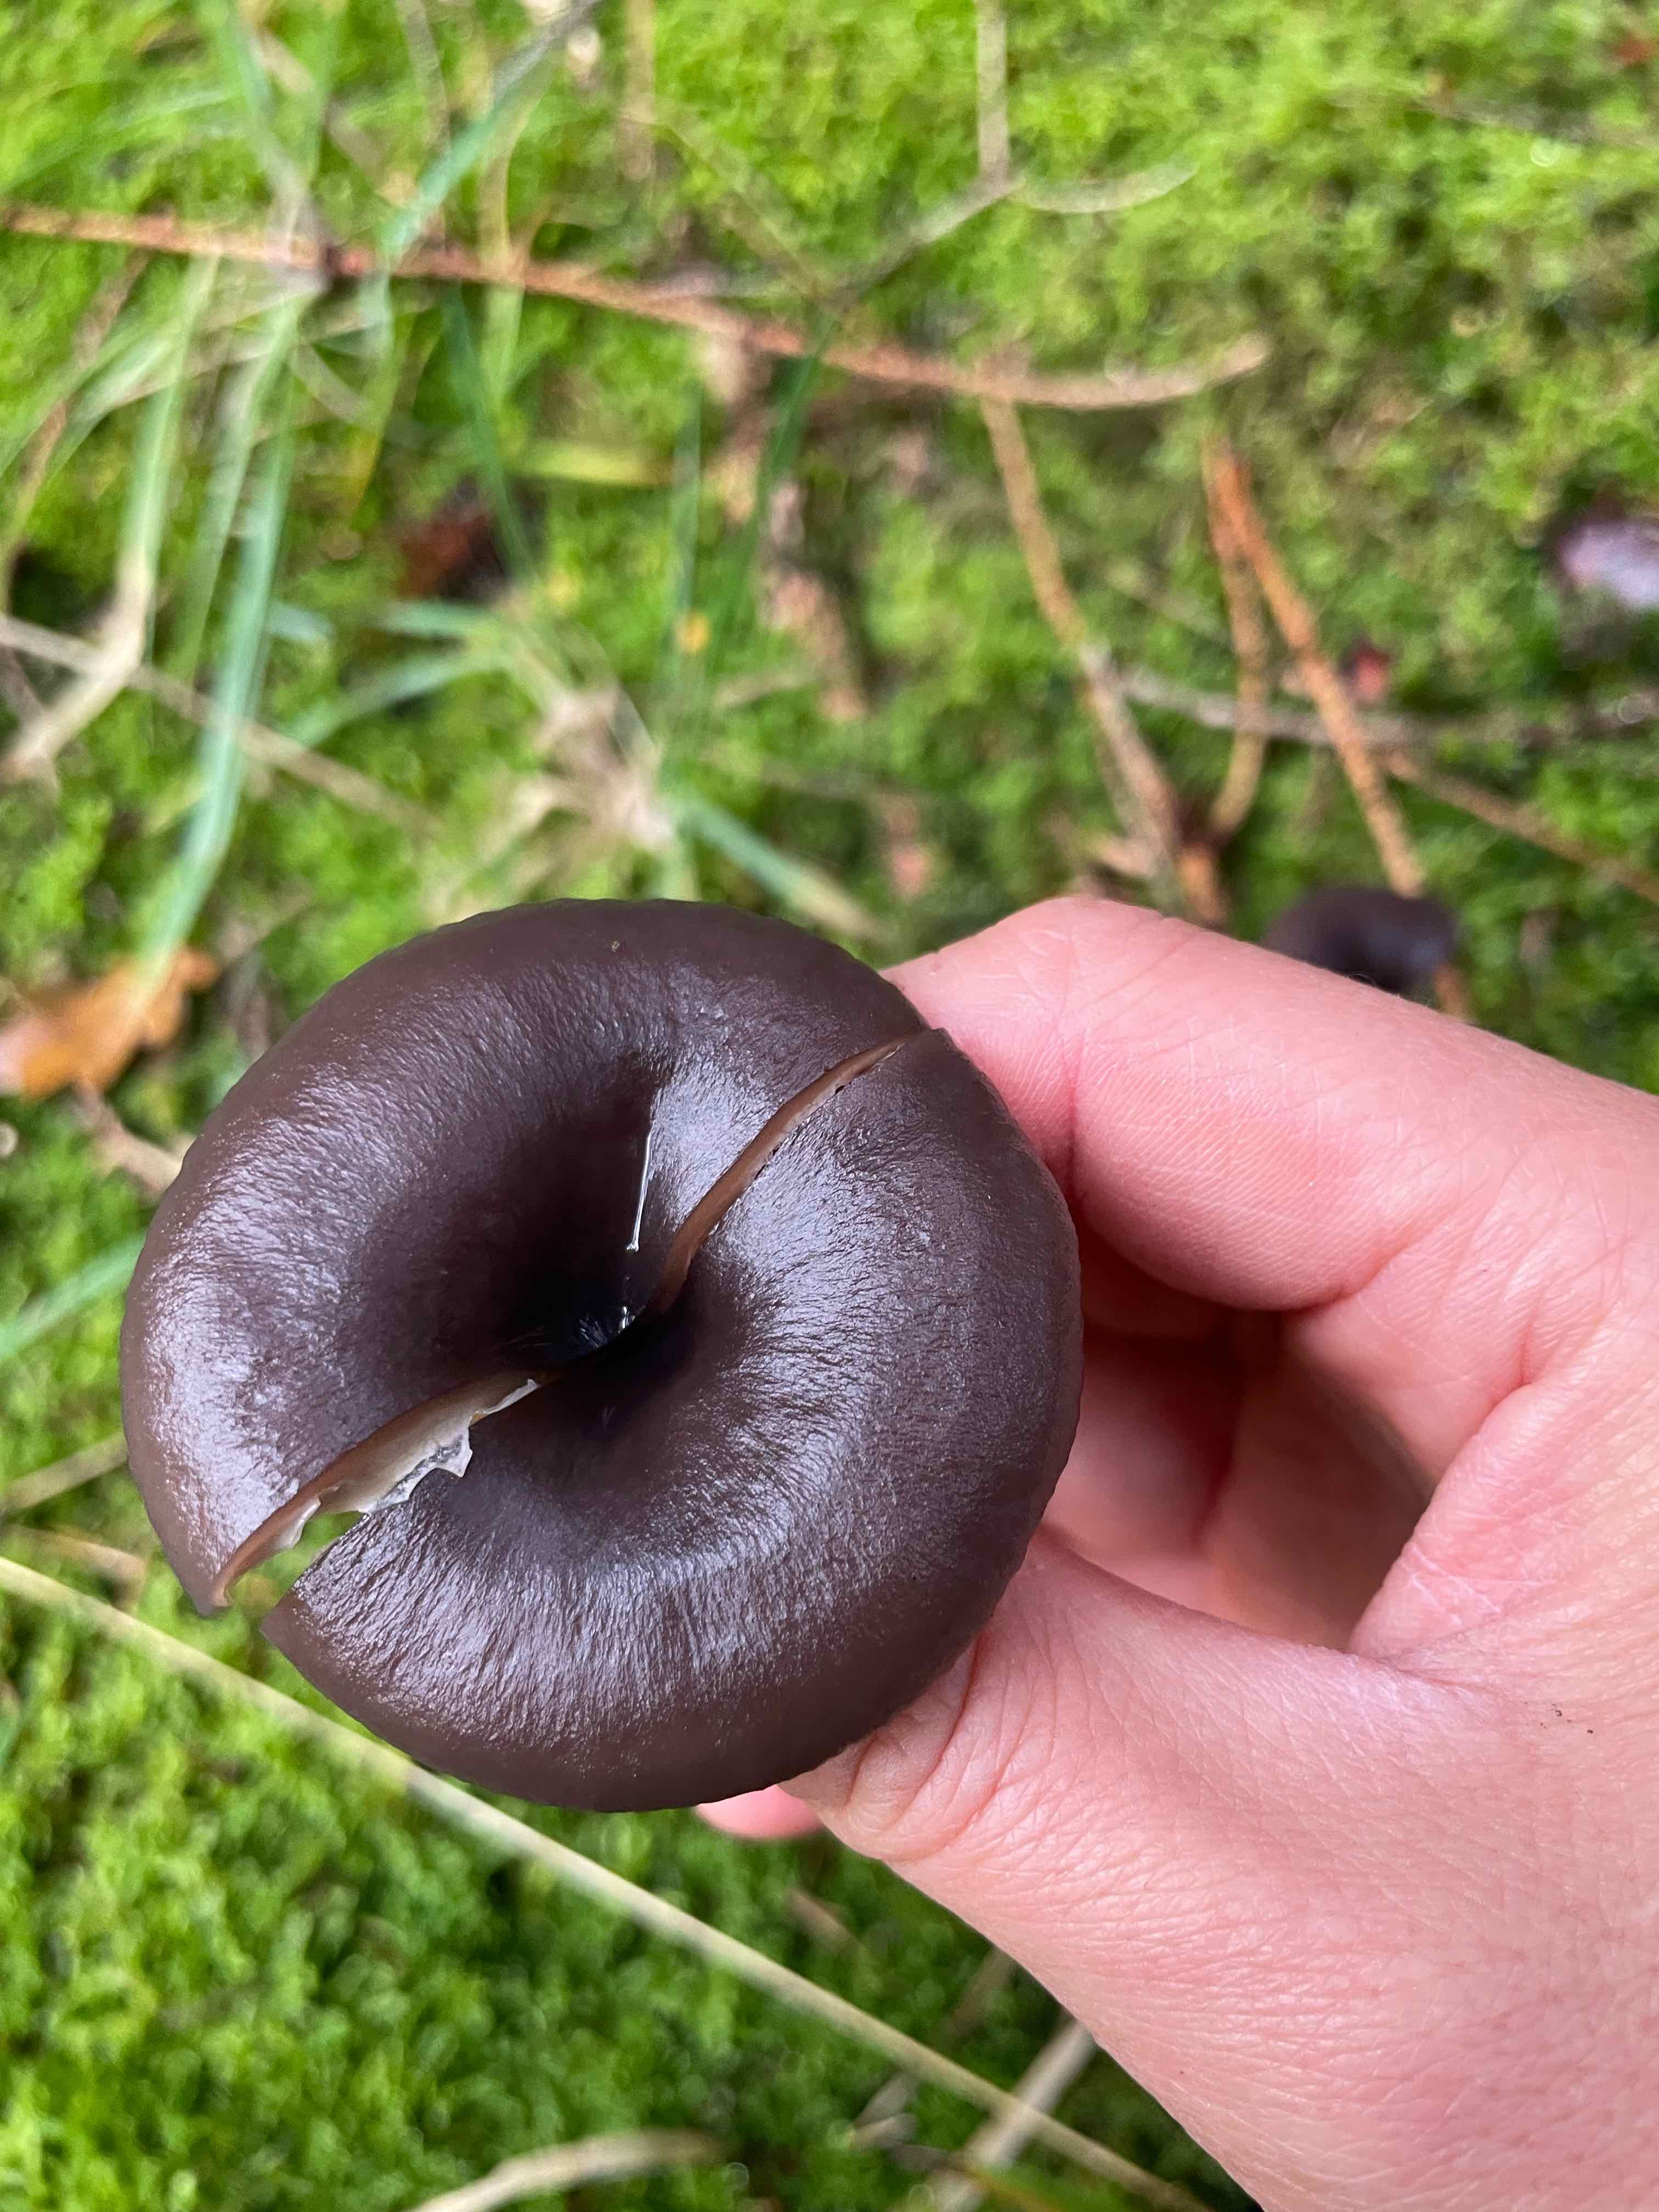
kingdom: Fungi
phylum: Basidiomycota
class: Agaricomycetes
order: Agaricales
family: Pseudoclitocybaceae
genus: Pseudoclitocybe
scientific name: Pseudoclitocybe cyathiformis
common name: almindelig bægertragthat
